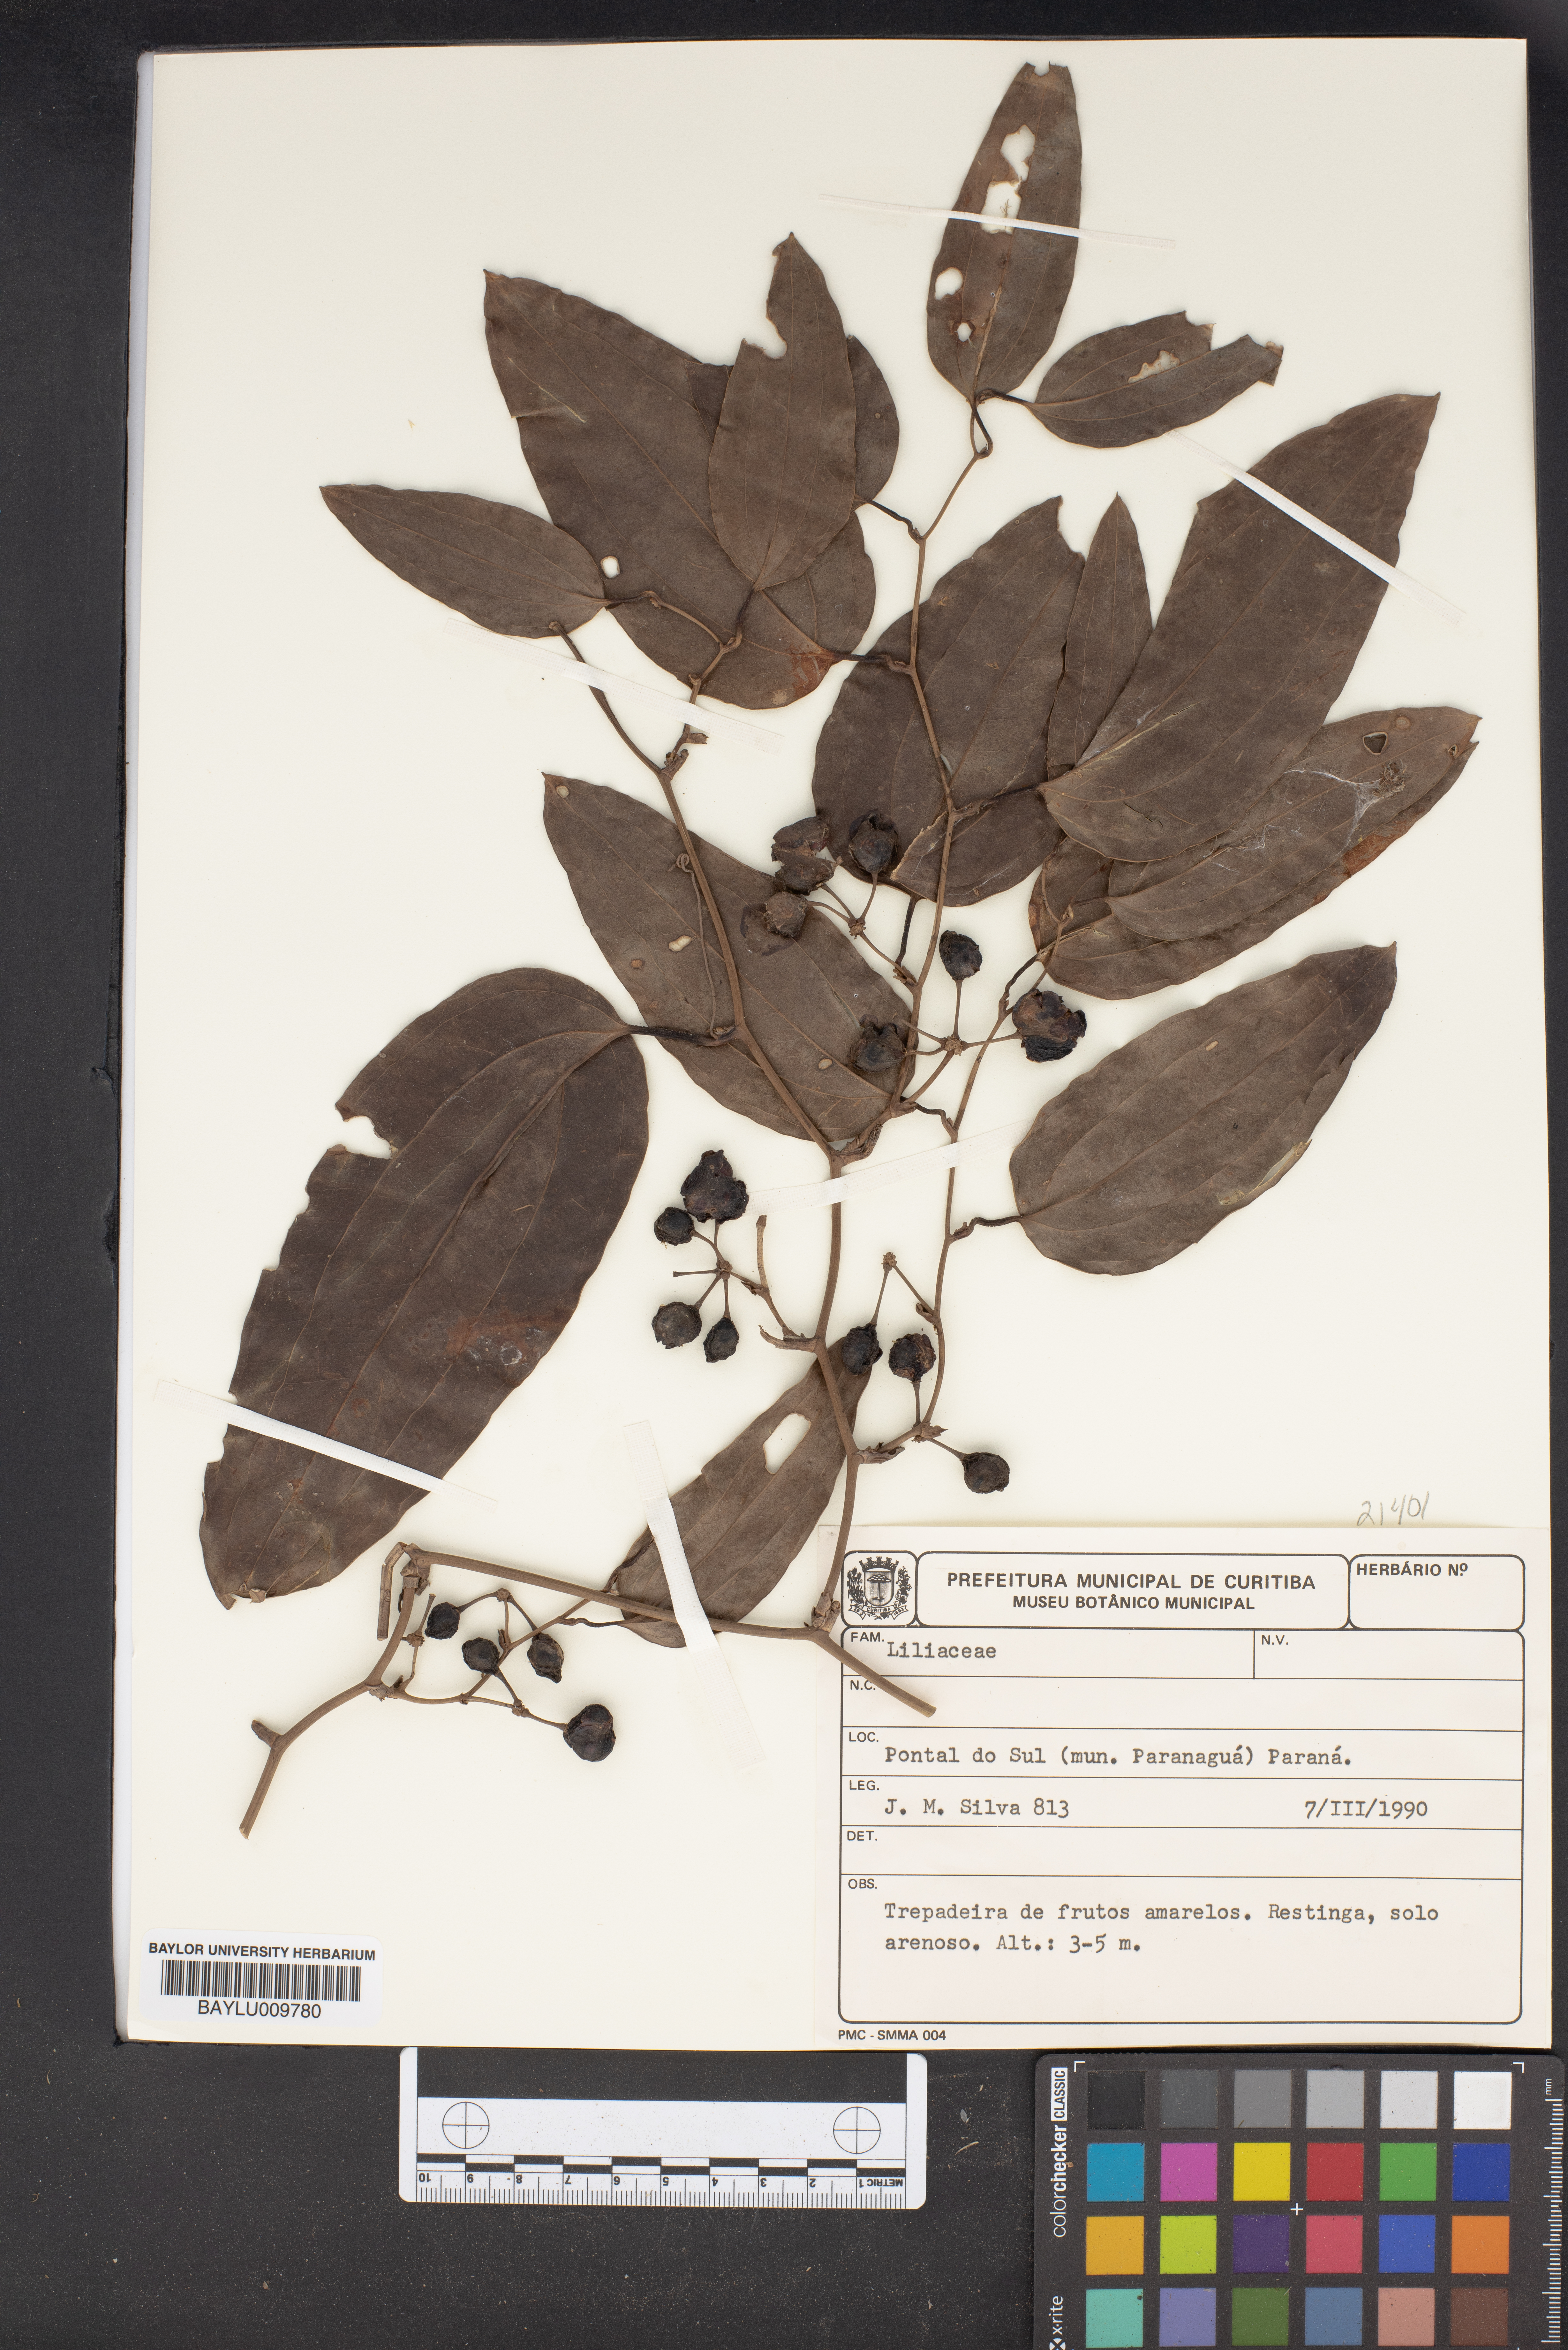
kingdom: Plantae
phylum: Tracheophyta
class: Liliopsida
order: Liliales
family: Liliaceae
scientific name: Liliaceae
